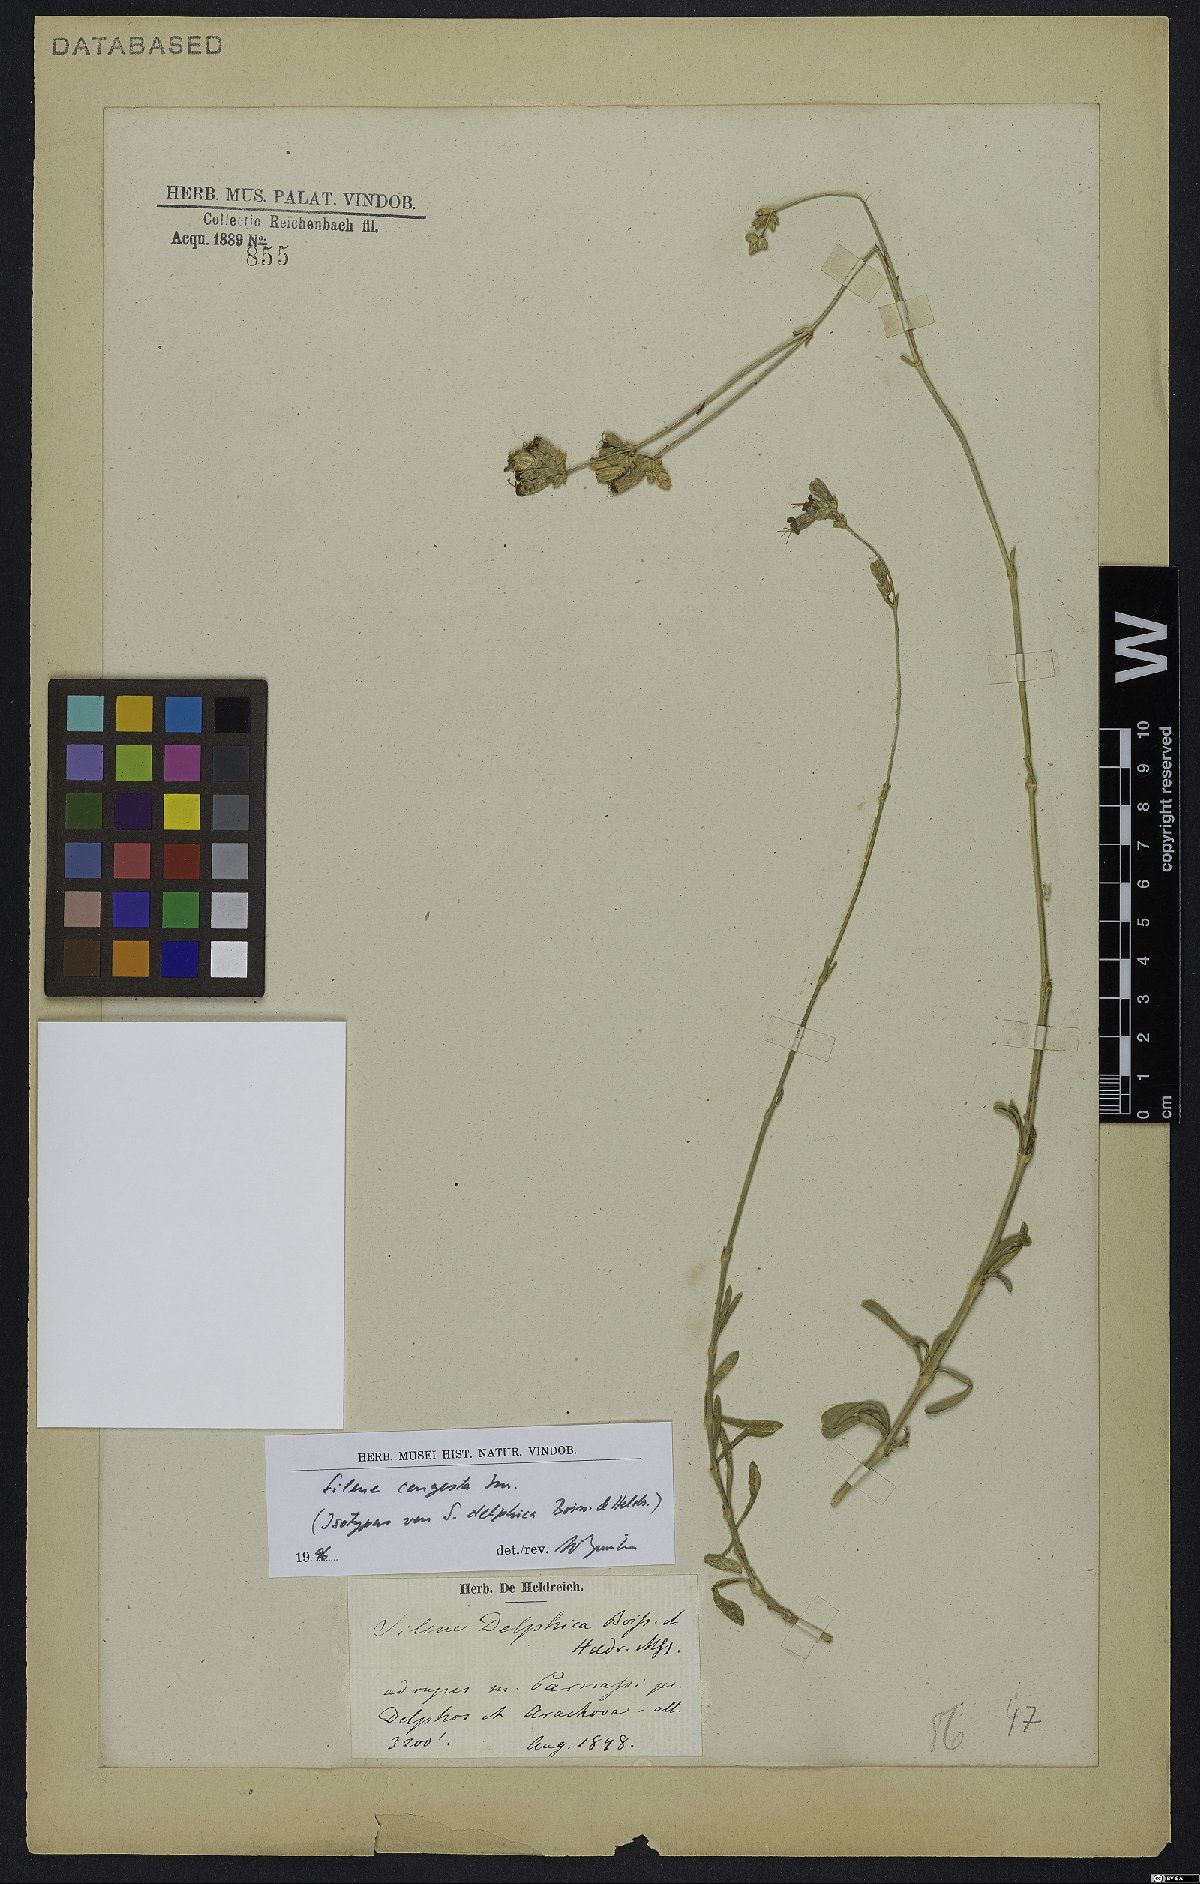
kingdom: Plantae
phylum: Tracheophyta
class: Magnoliopsida
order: Caryophyllales
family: Caryophyllaceae
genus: Silene
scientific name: Silene congesta
